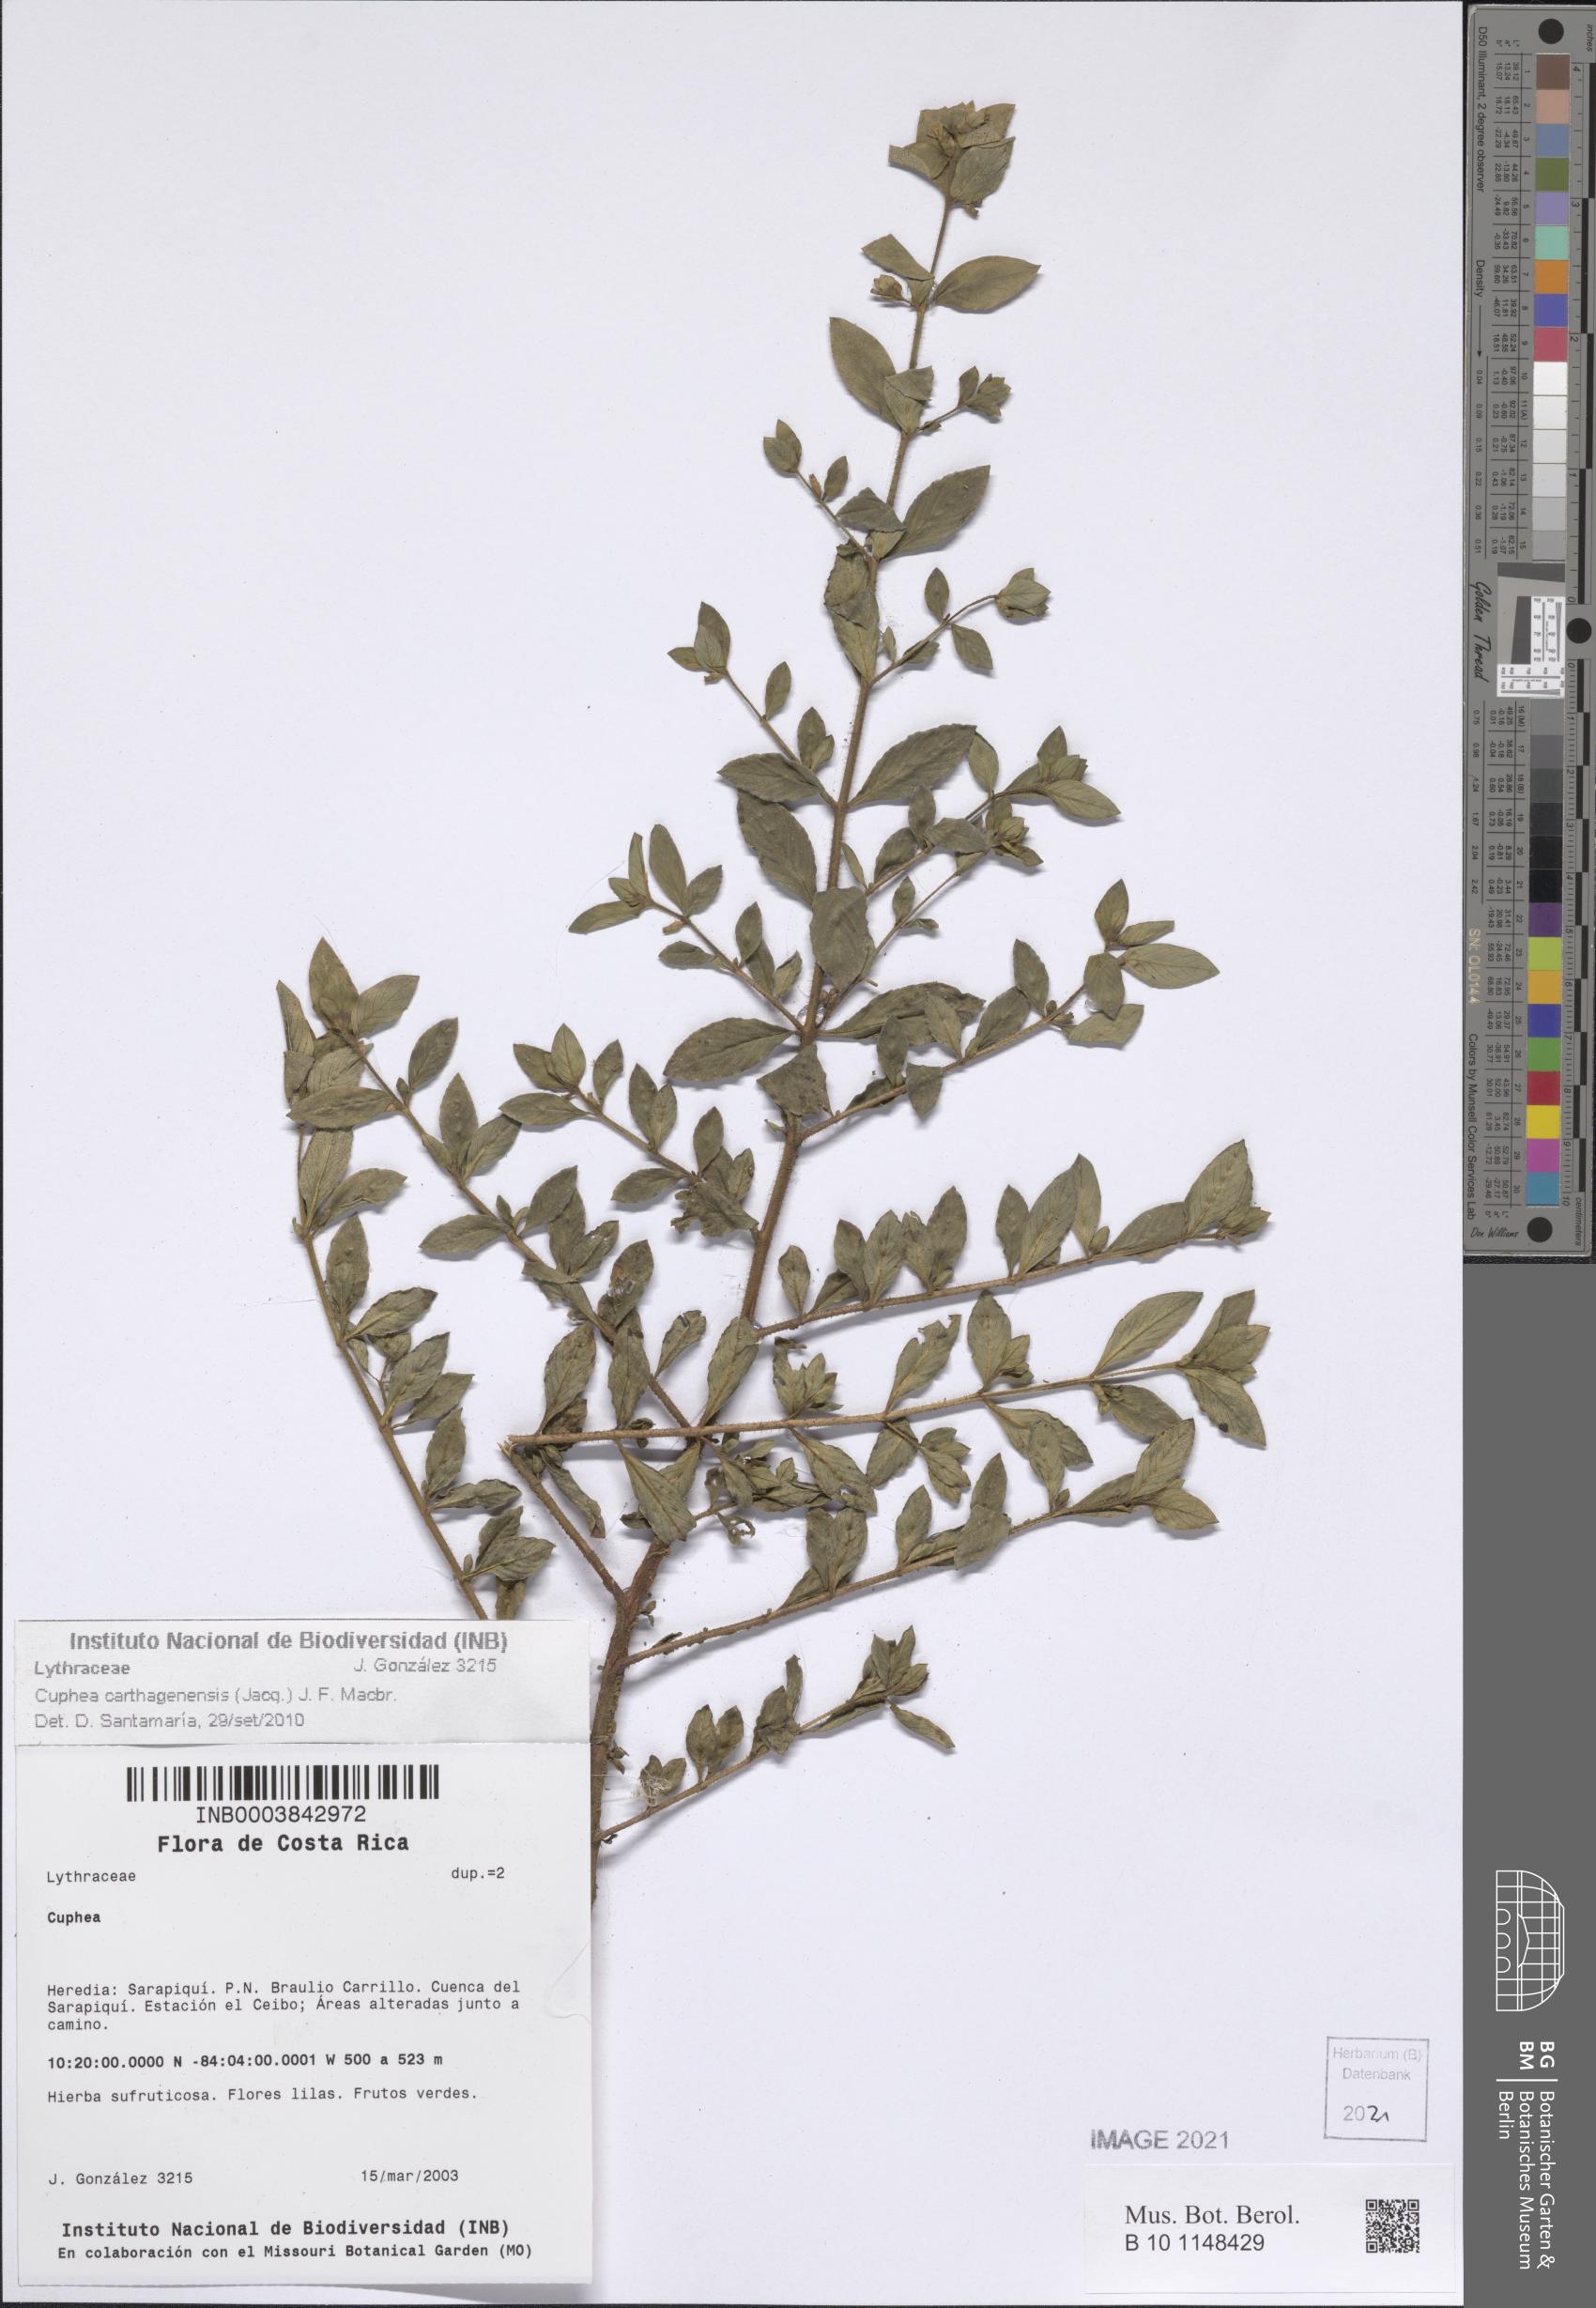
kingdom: Plantae
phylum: Tracheophyta
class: Magnoliopsida
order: Myrtales
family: Lythraceae
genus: Cuphea
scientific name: Cuphea carthagenensis
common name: Colombian waxweed
